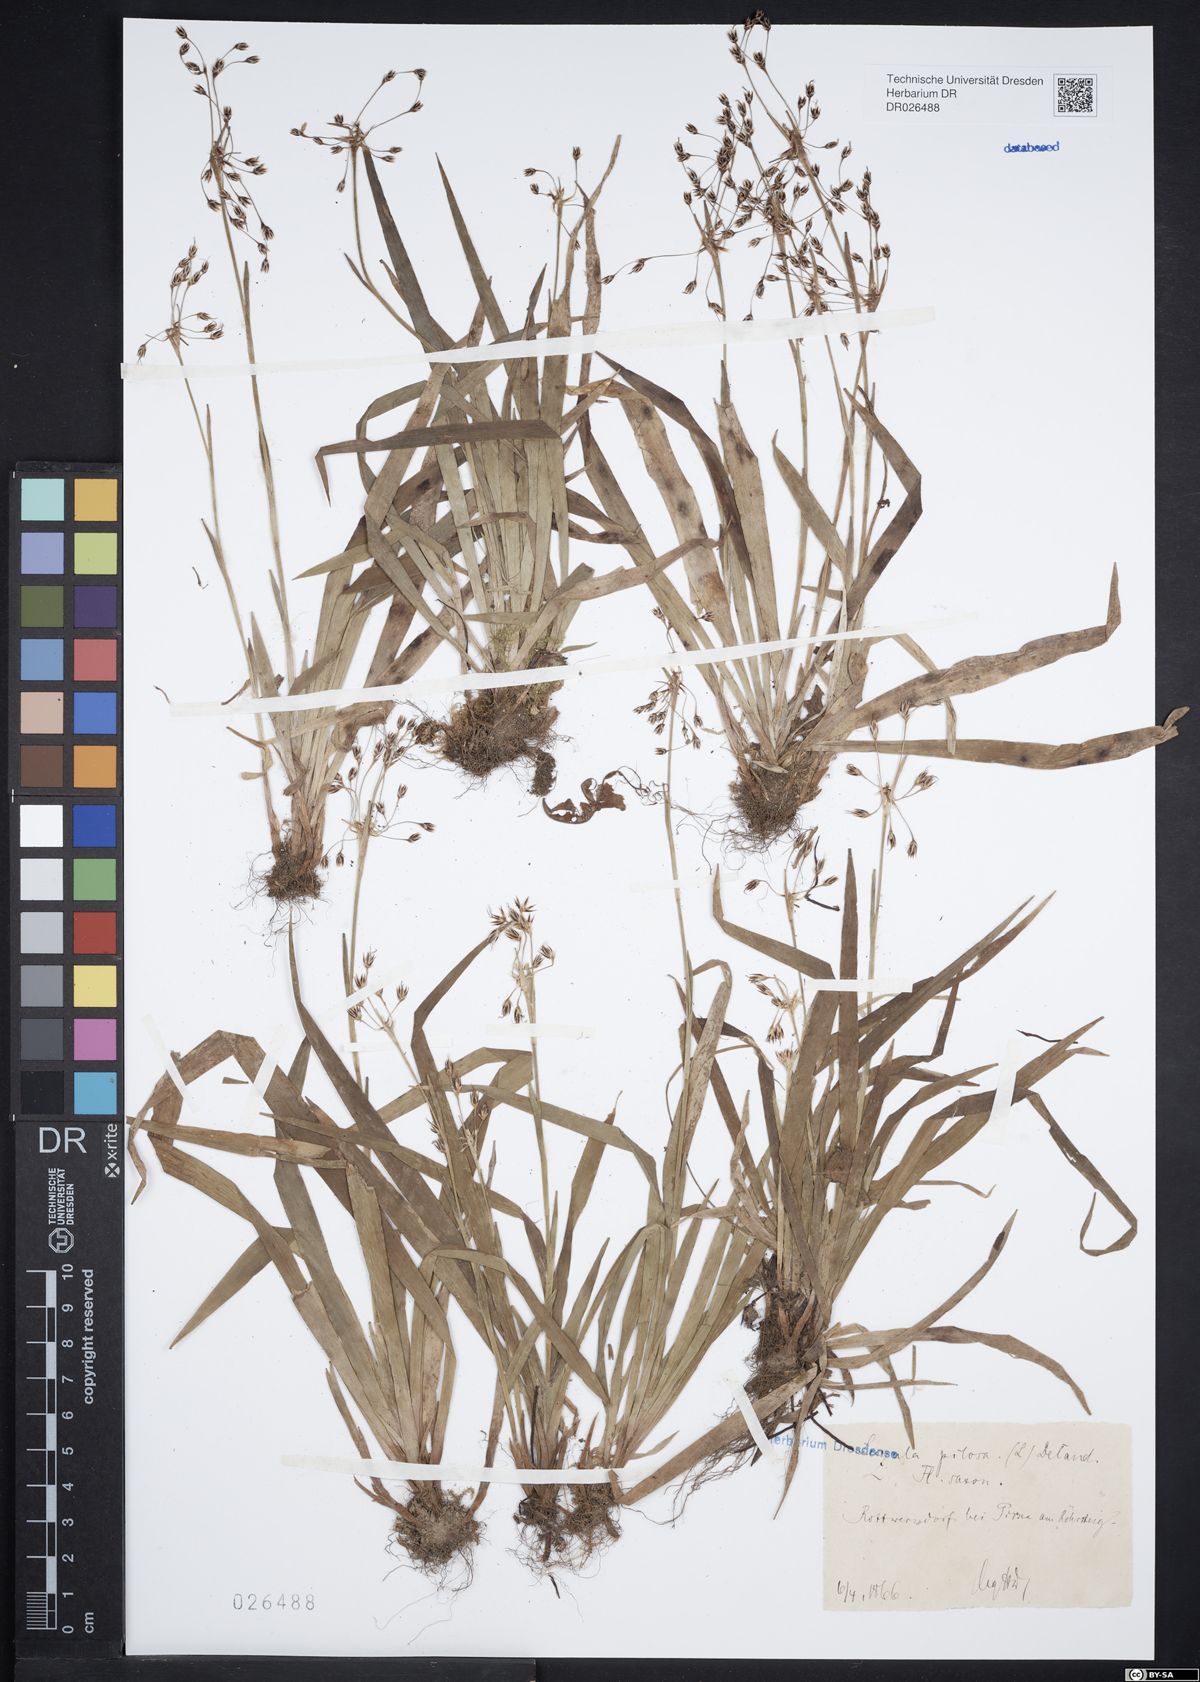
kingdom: Plantae
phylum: Tracheophyta
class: Liliopsida
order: Poales
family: Juncaceae
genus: Luzula
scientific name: Luzula pilosa
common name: Hairy wood-rush
